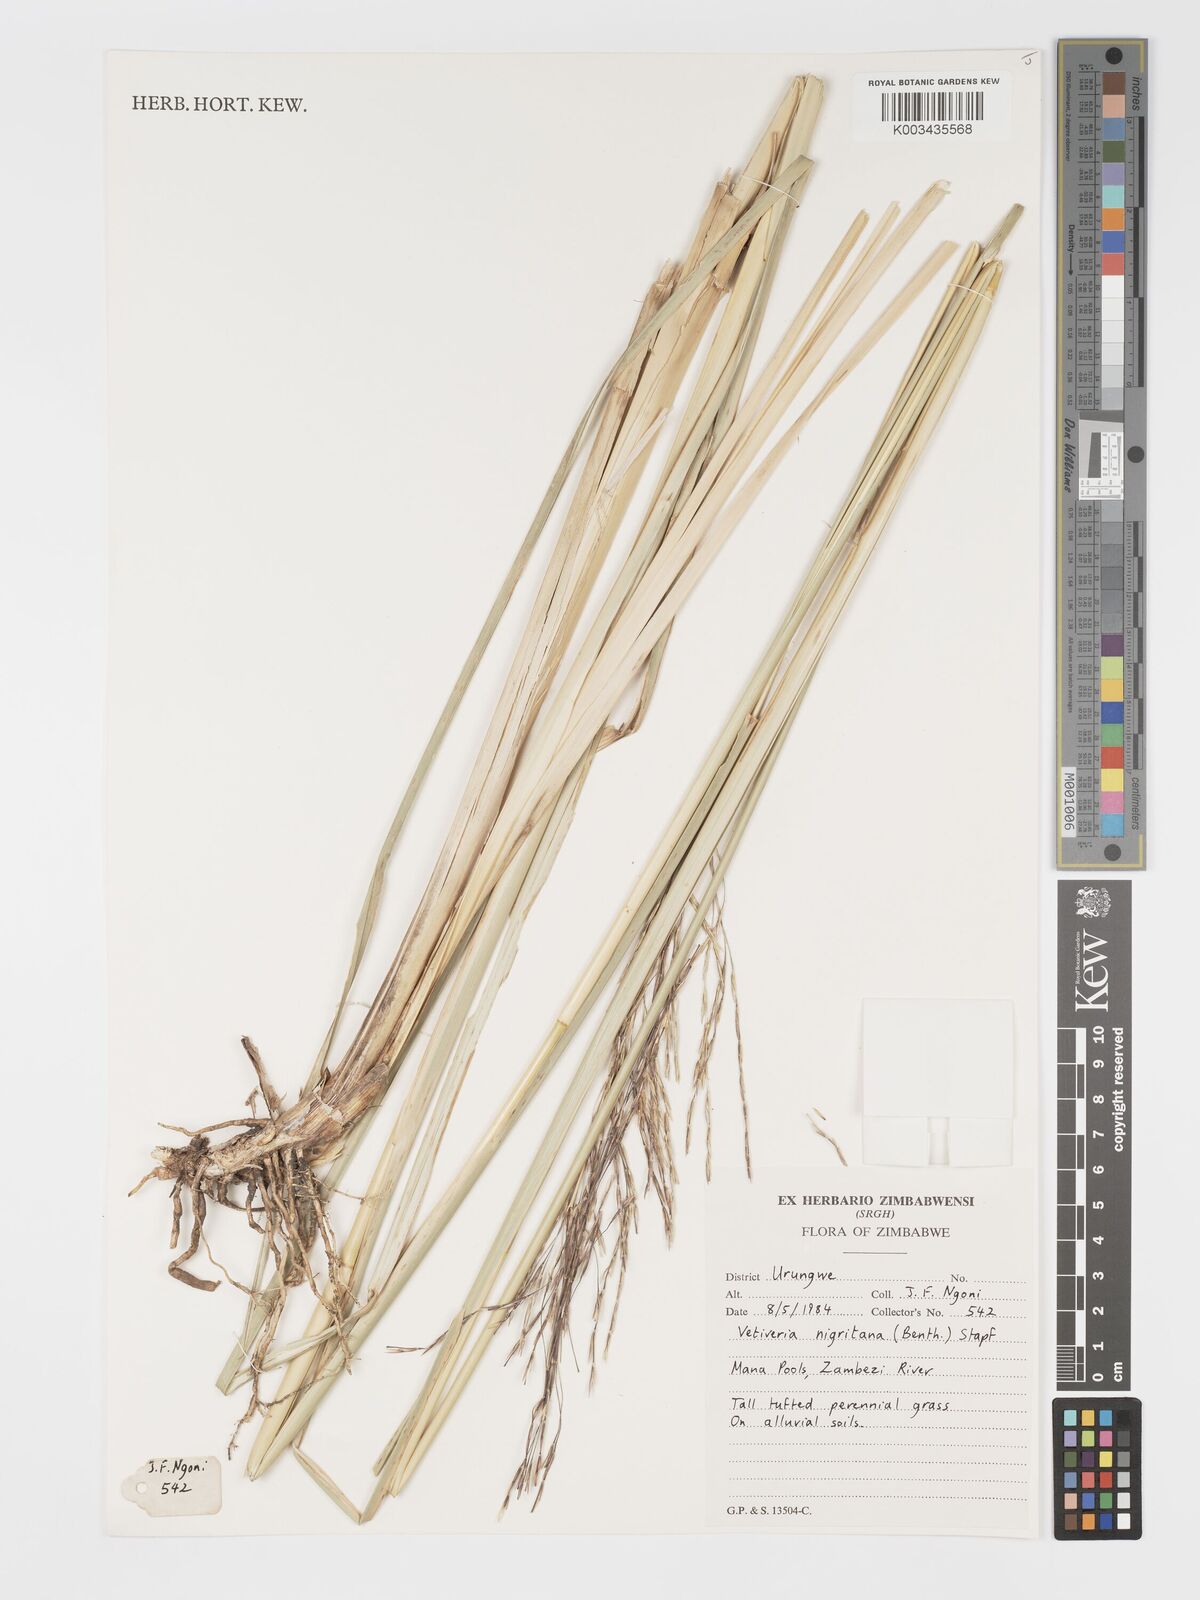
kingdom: Plantae
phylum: Tracheophyta
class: Liliopsida
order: Poales
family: Poaceae
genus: Chrysopogon
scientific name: Chrysopogon nigritanus
